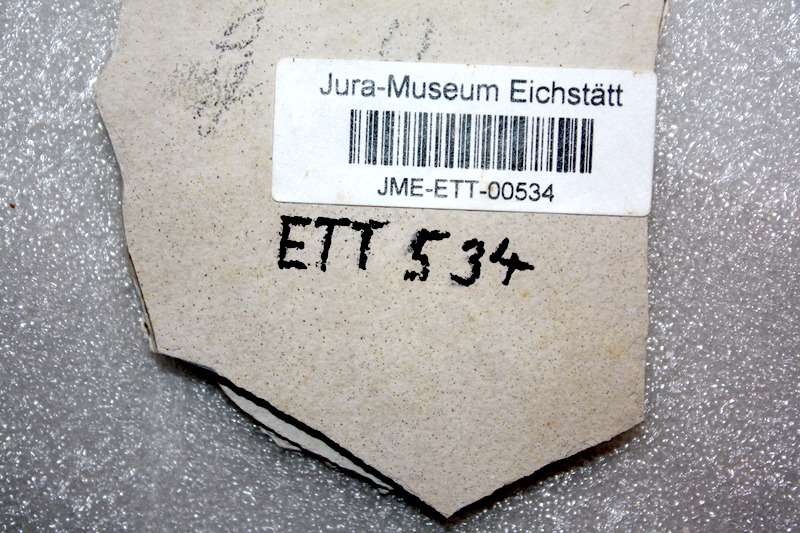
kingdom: Animalia
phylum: Chordata
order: Salmoniformes
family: Orthogonikleithridae
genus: Orthogonikleithrus
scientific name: Orthogonikleithrus hoelli
